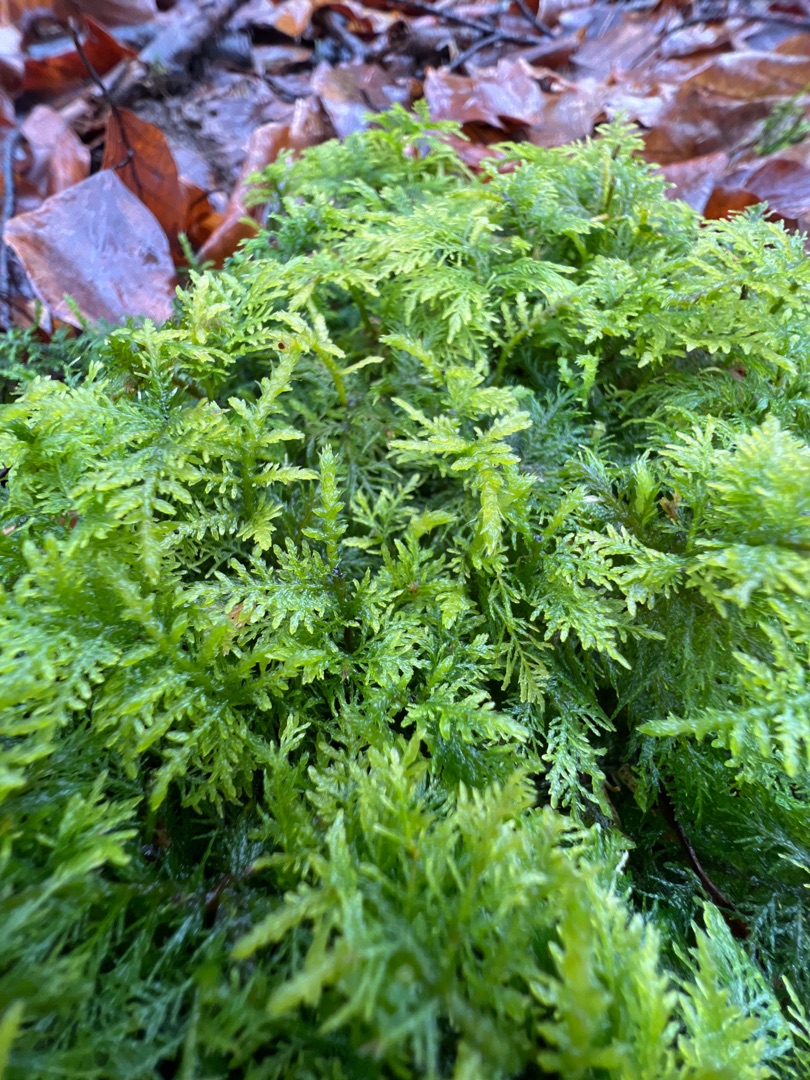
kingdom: Plantae
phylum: Bryophyta
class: Bryopsida
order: Hypnales
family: Thuidiaceae
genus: Thuidium
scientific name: Thuidium tamariscinum
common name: Pryd-bregnemos
